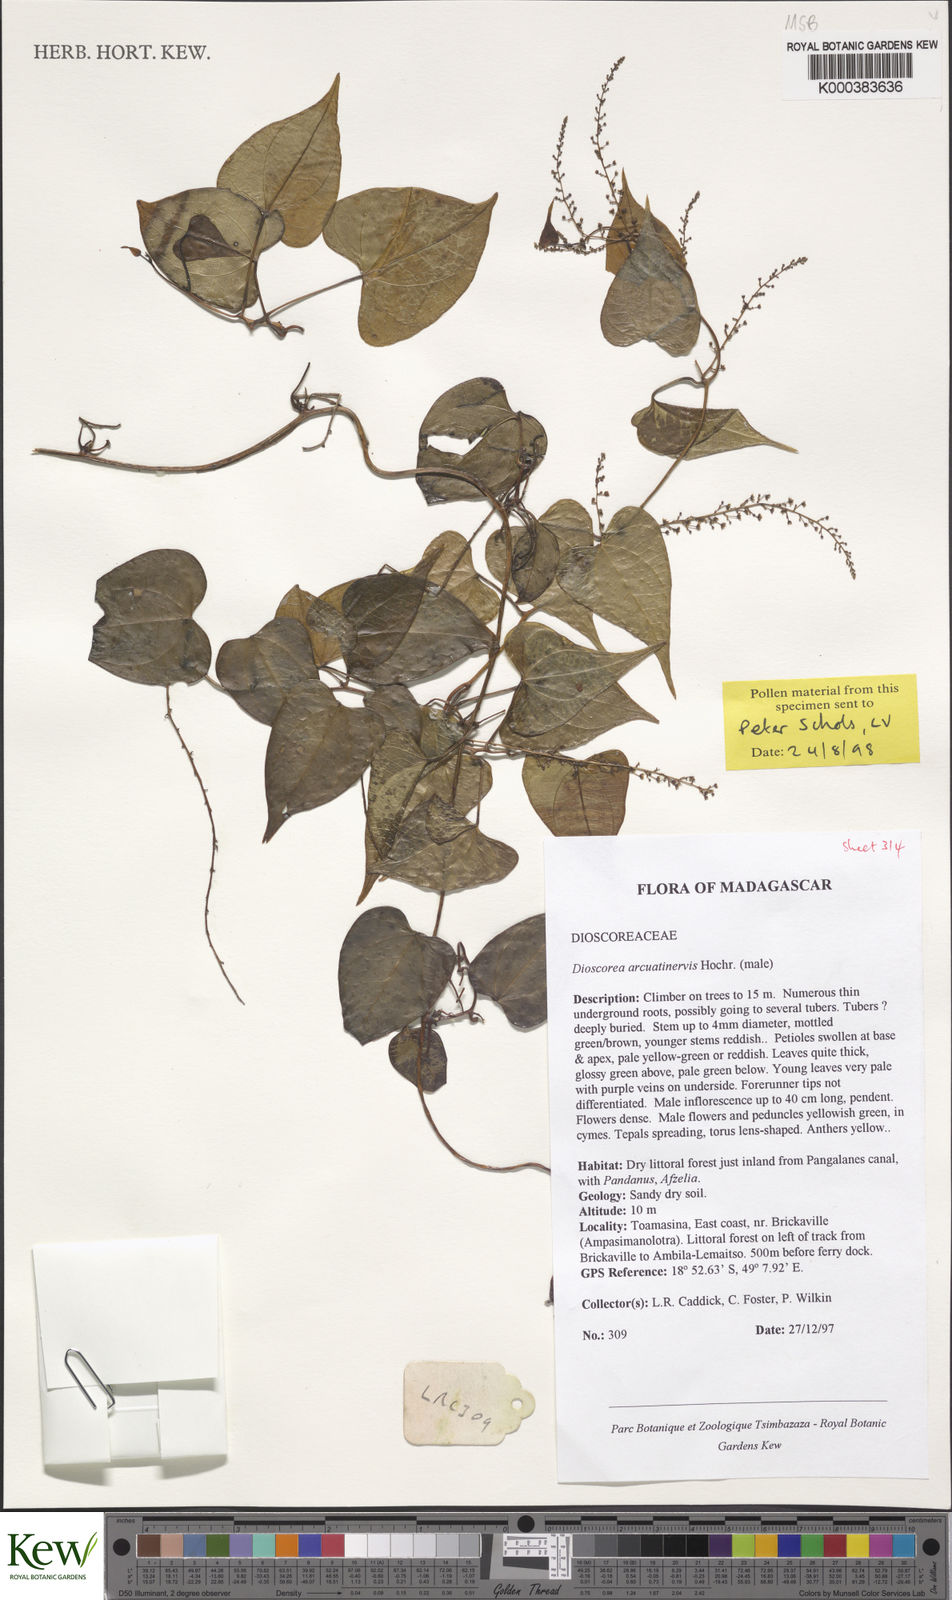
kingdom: Plantae
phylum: Tracheophyta
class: Liliopsida
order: Dioscoreales
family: Dioscoreaceae
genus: Dioscorea
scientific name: Dioscorea arcuatinervis
